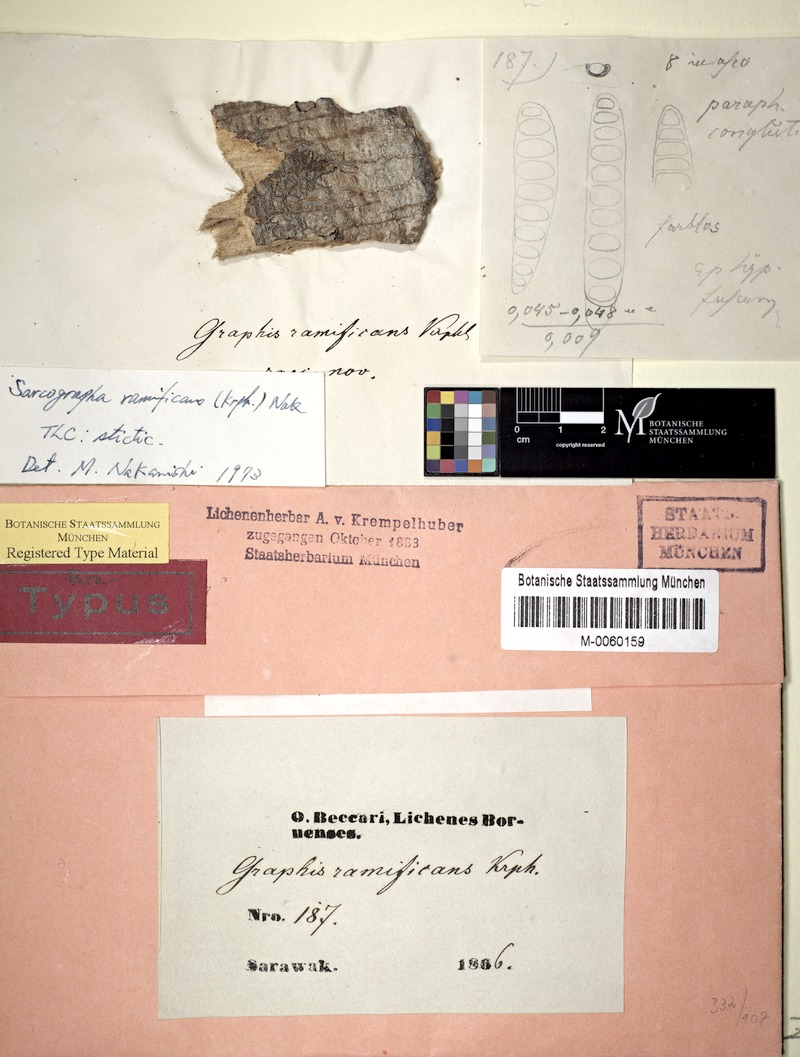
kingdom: Fungi
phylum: Ascomycota
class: Lecanoromycetes
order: Ostropales
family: Graphidaceae
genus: Sarcographa
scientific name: Sarcographa ramificans
